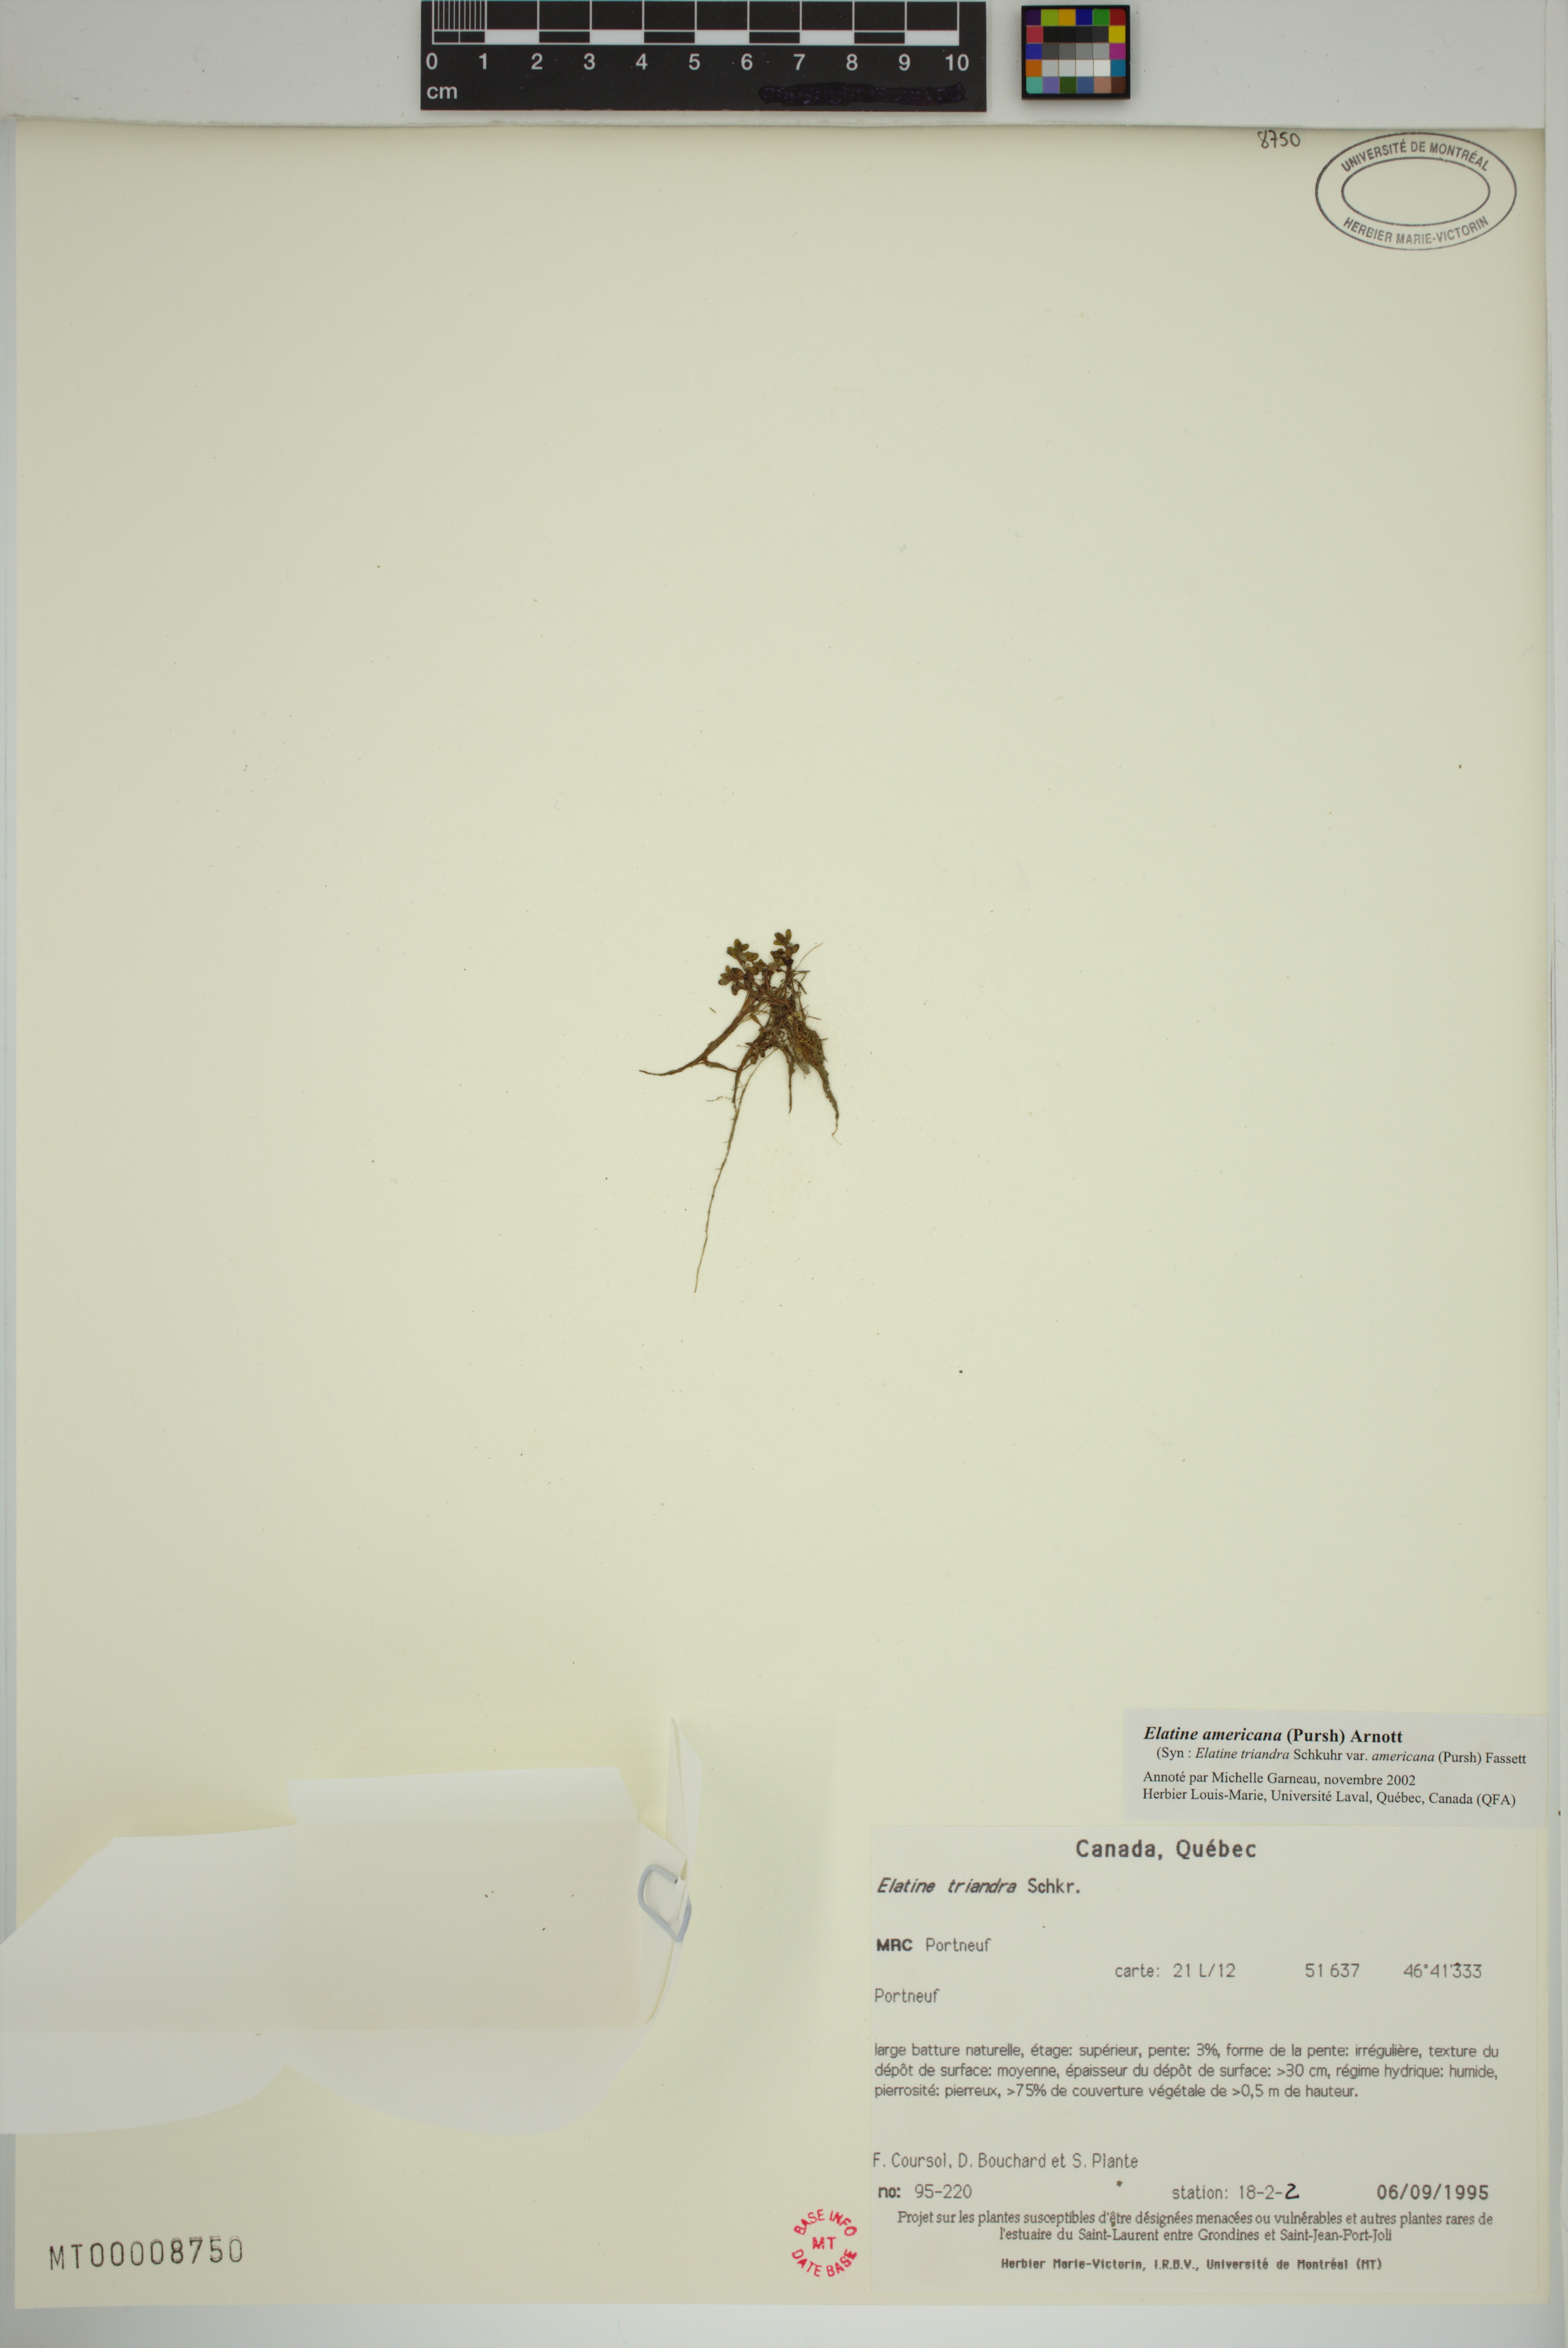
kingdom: Plantae
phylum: Tracheophyta
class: Magnoliopsida
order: Malpighiales
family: Elatinaceae
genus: Elatine
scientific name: Elatine americana
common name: American waterwort
